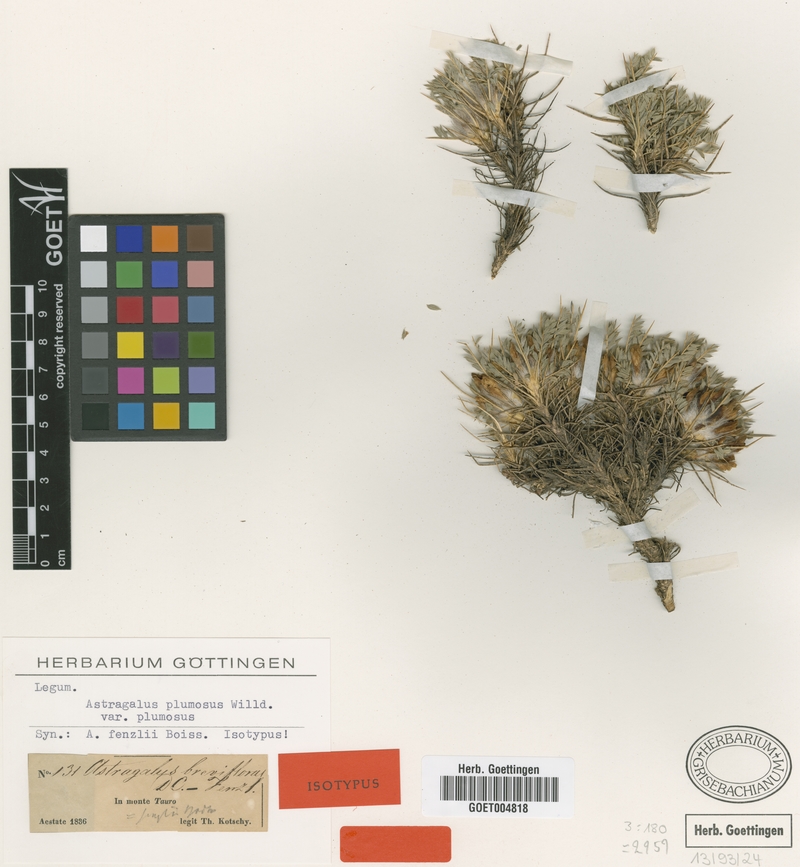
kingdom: Plantae
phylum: Tracheophyta
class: Magnoliopsida
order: Fabales
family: Fabaceae
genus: Astragalus
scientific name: Astragalus plumosus
